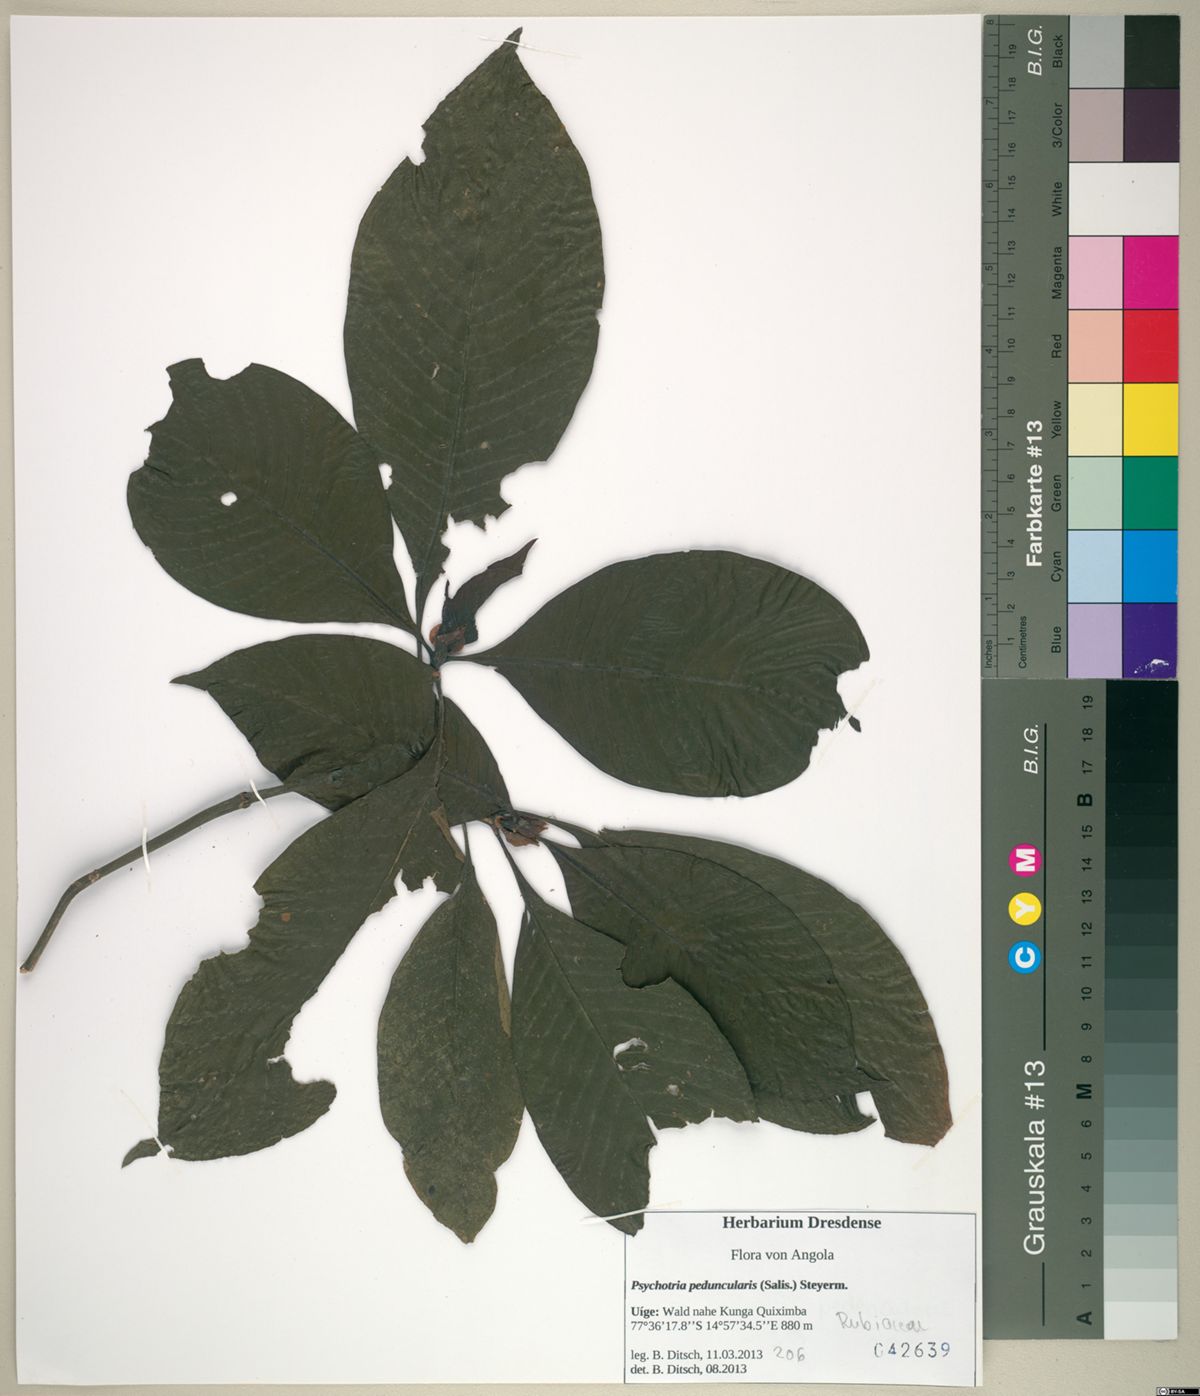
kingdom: Plantae
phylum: Tracheophyta
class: Magnoliopsida
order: Gentianales
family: Rubiaceae
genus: Psychotria
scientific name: Psychotria peduncularis
